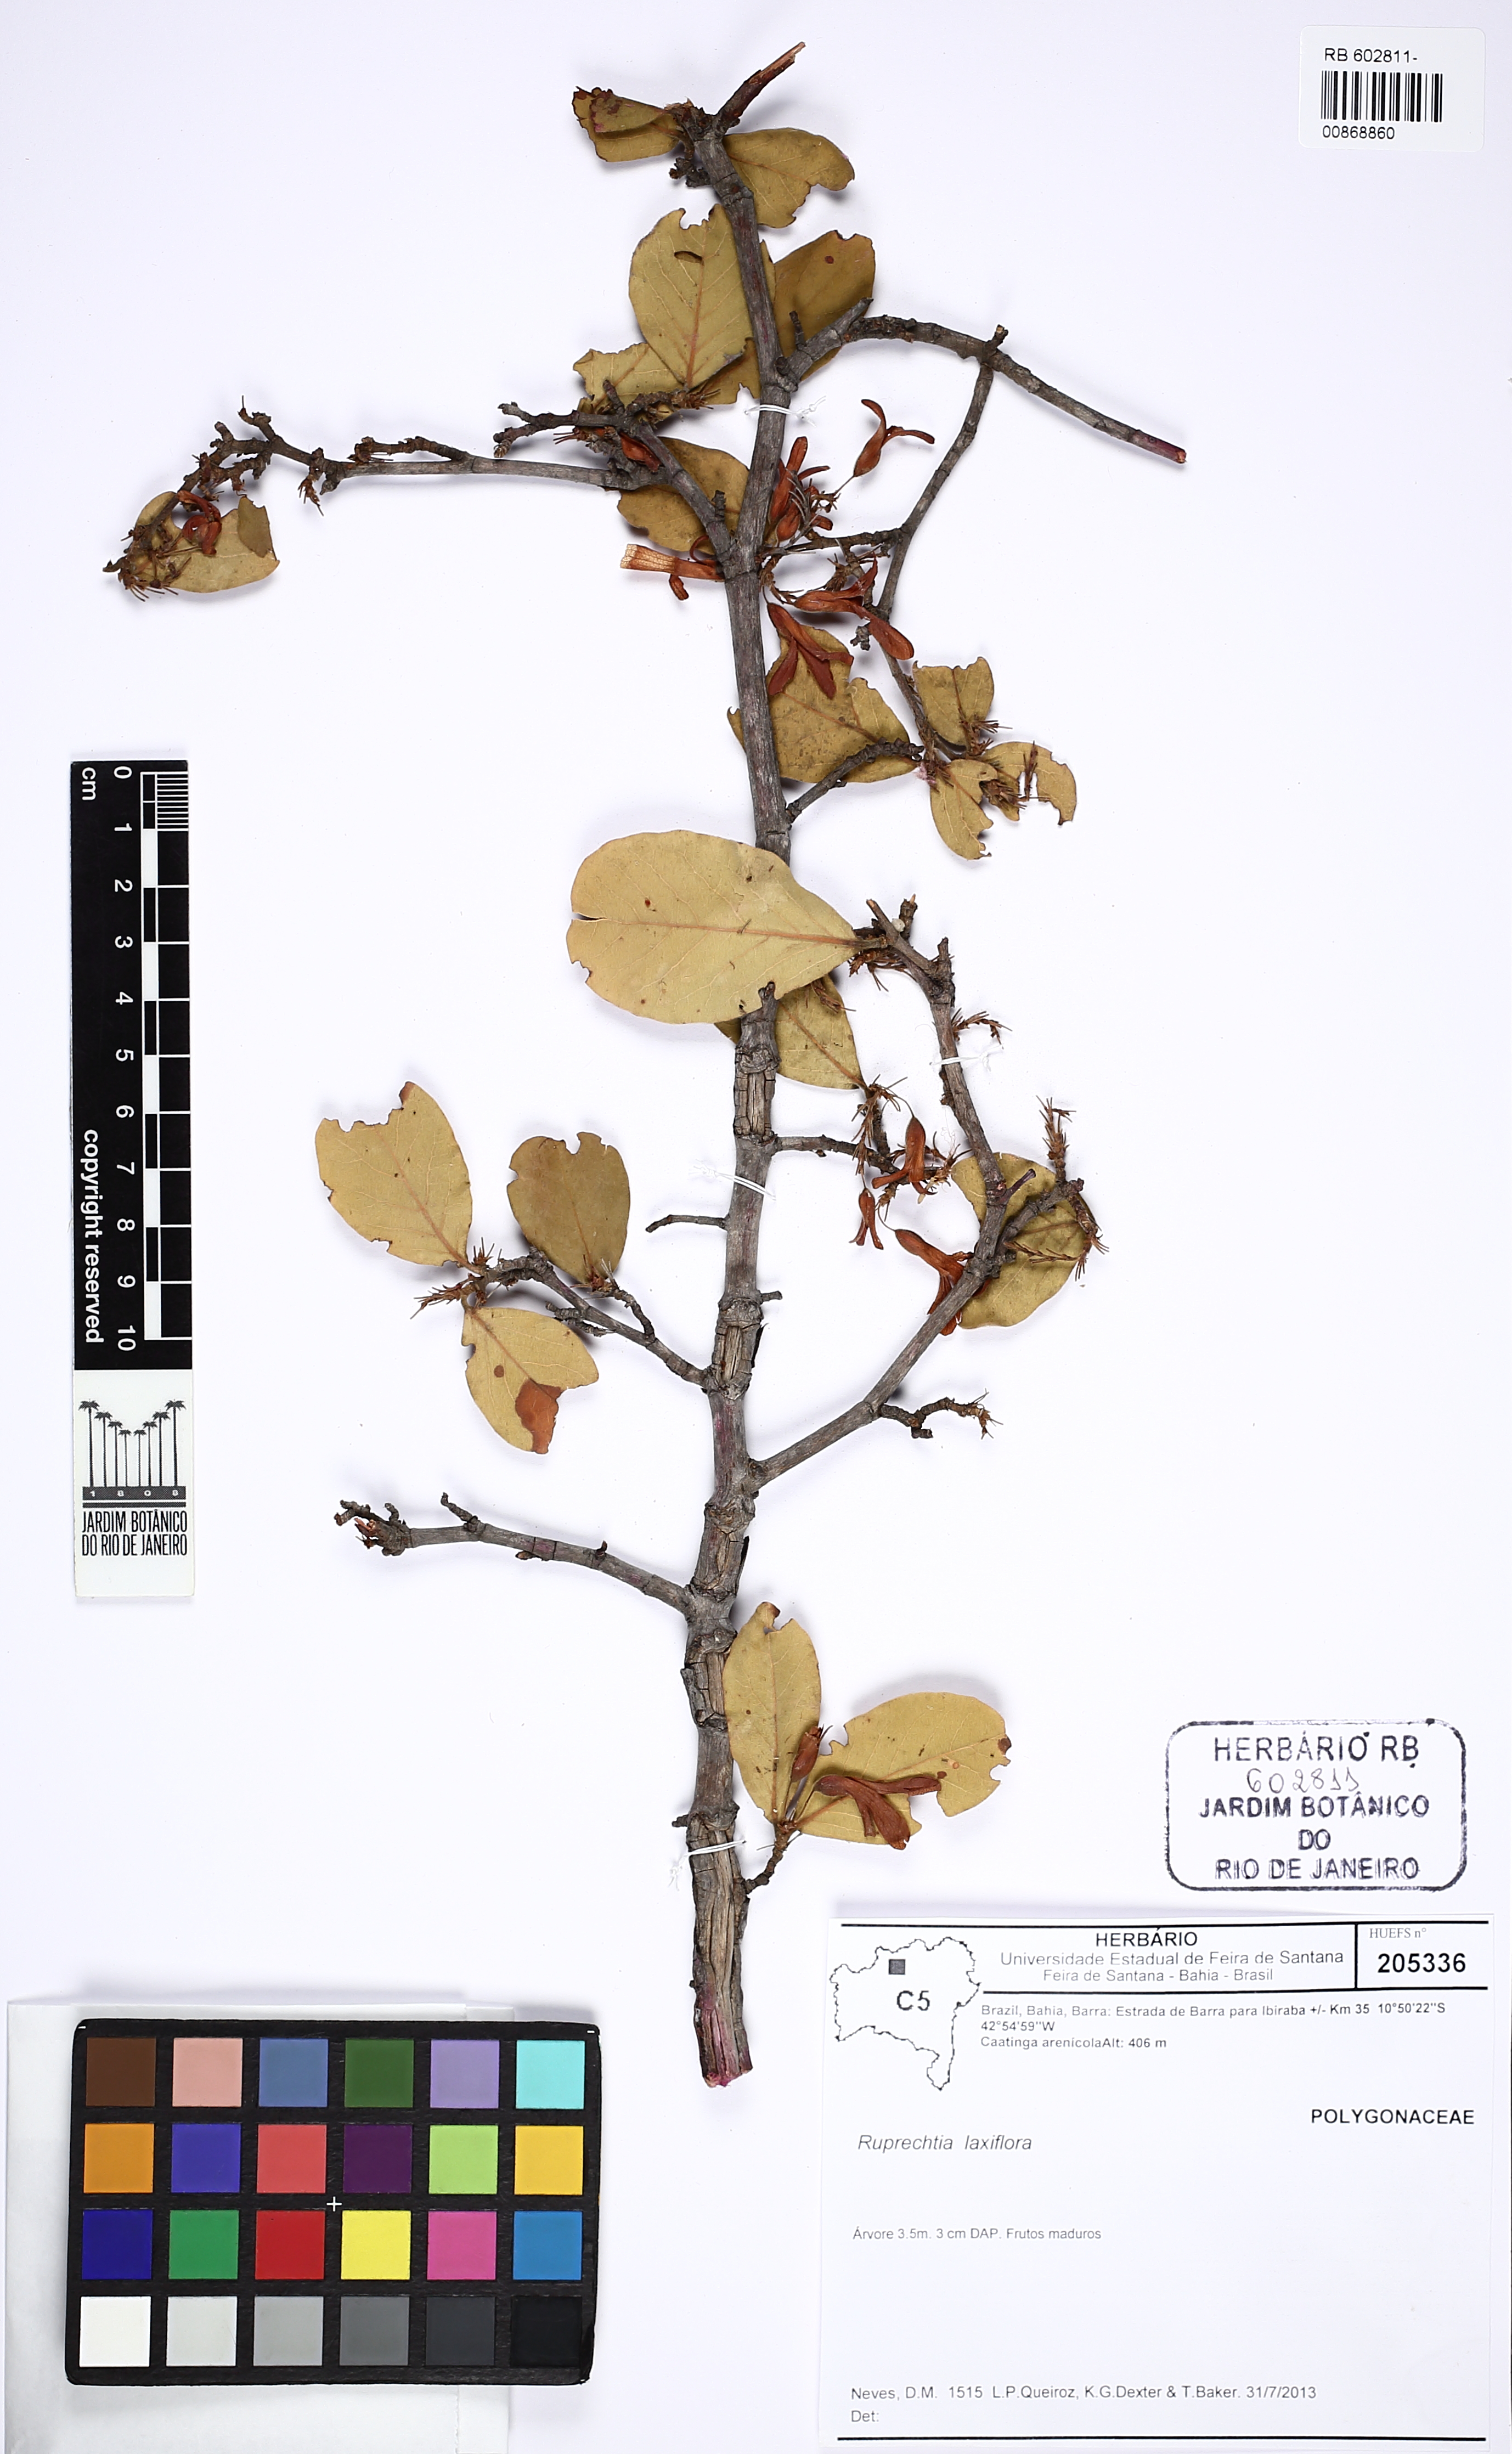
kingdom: Plantae
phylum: Tracheophyta
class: Magnoliopsida
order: Caryophyllales
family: Polygonaceae
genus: Ruprechtia
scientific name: Ruprechtia laxiflora
